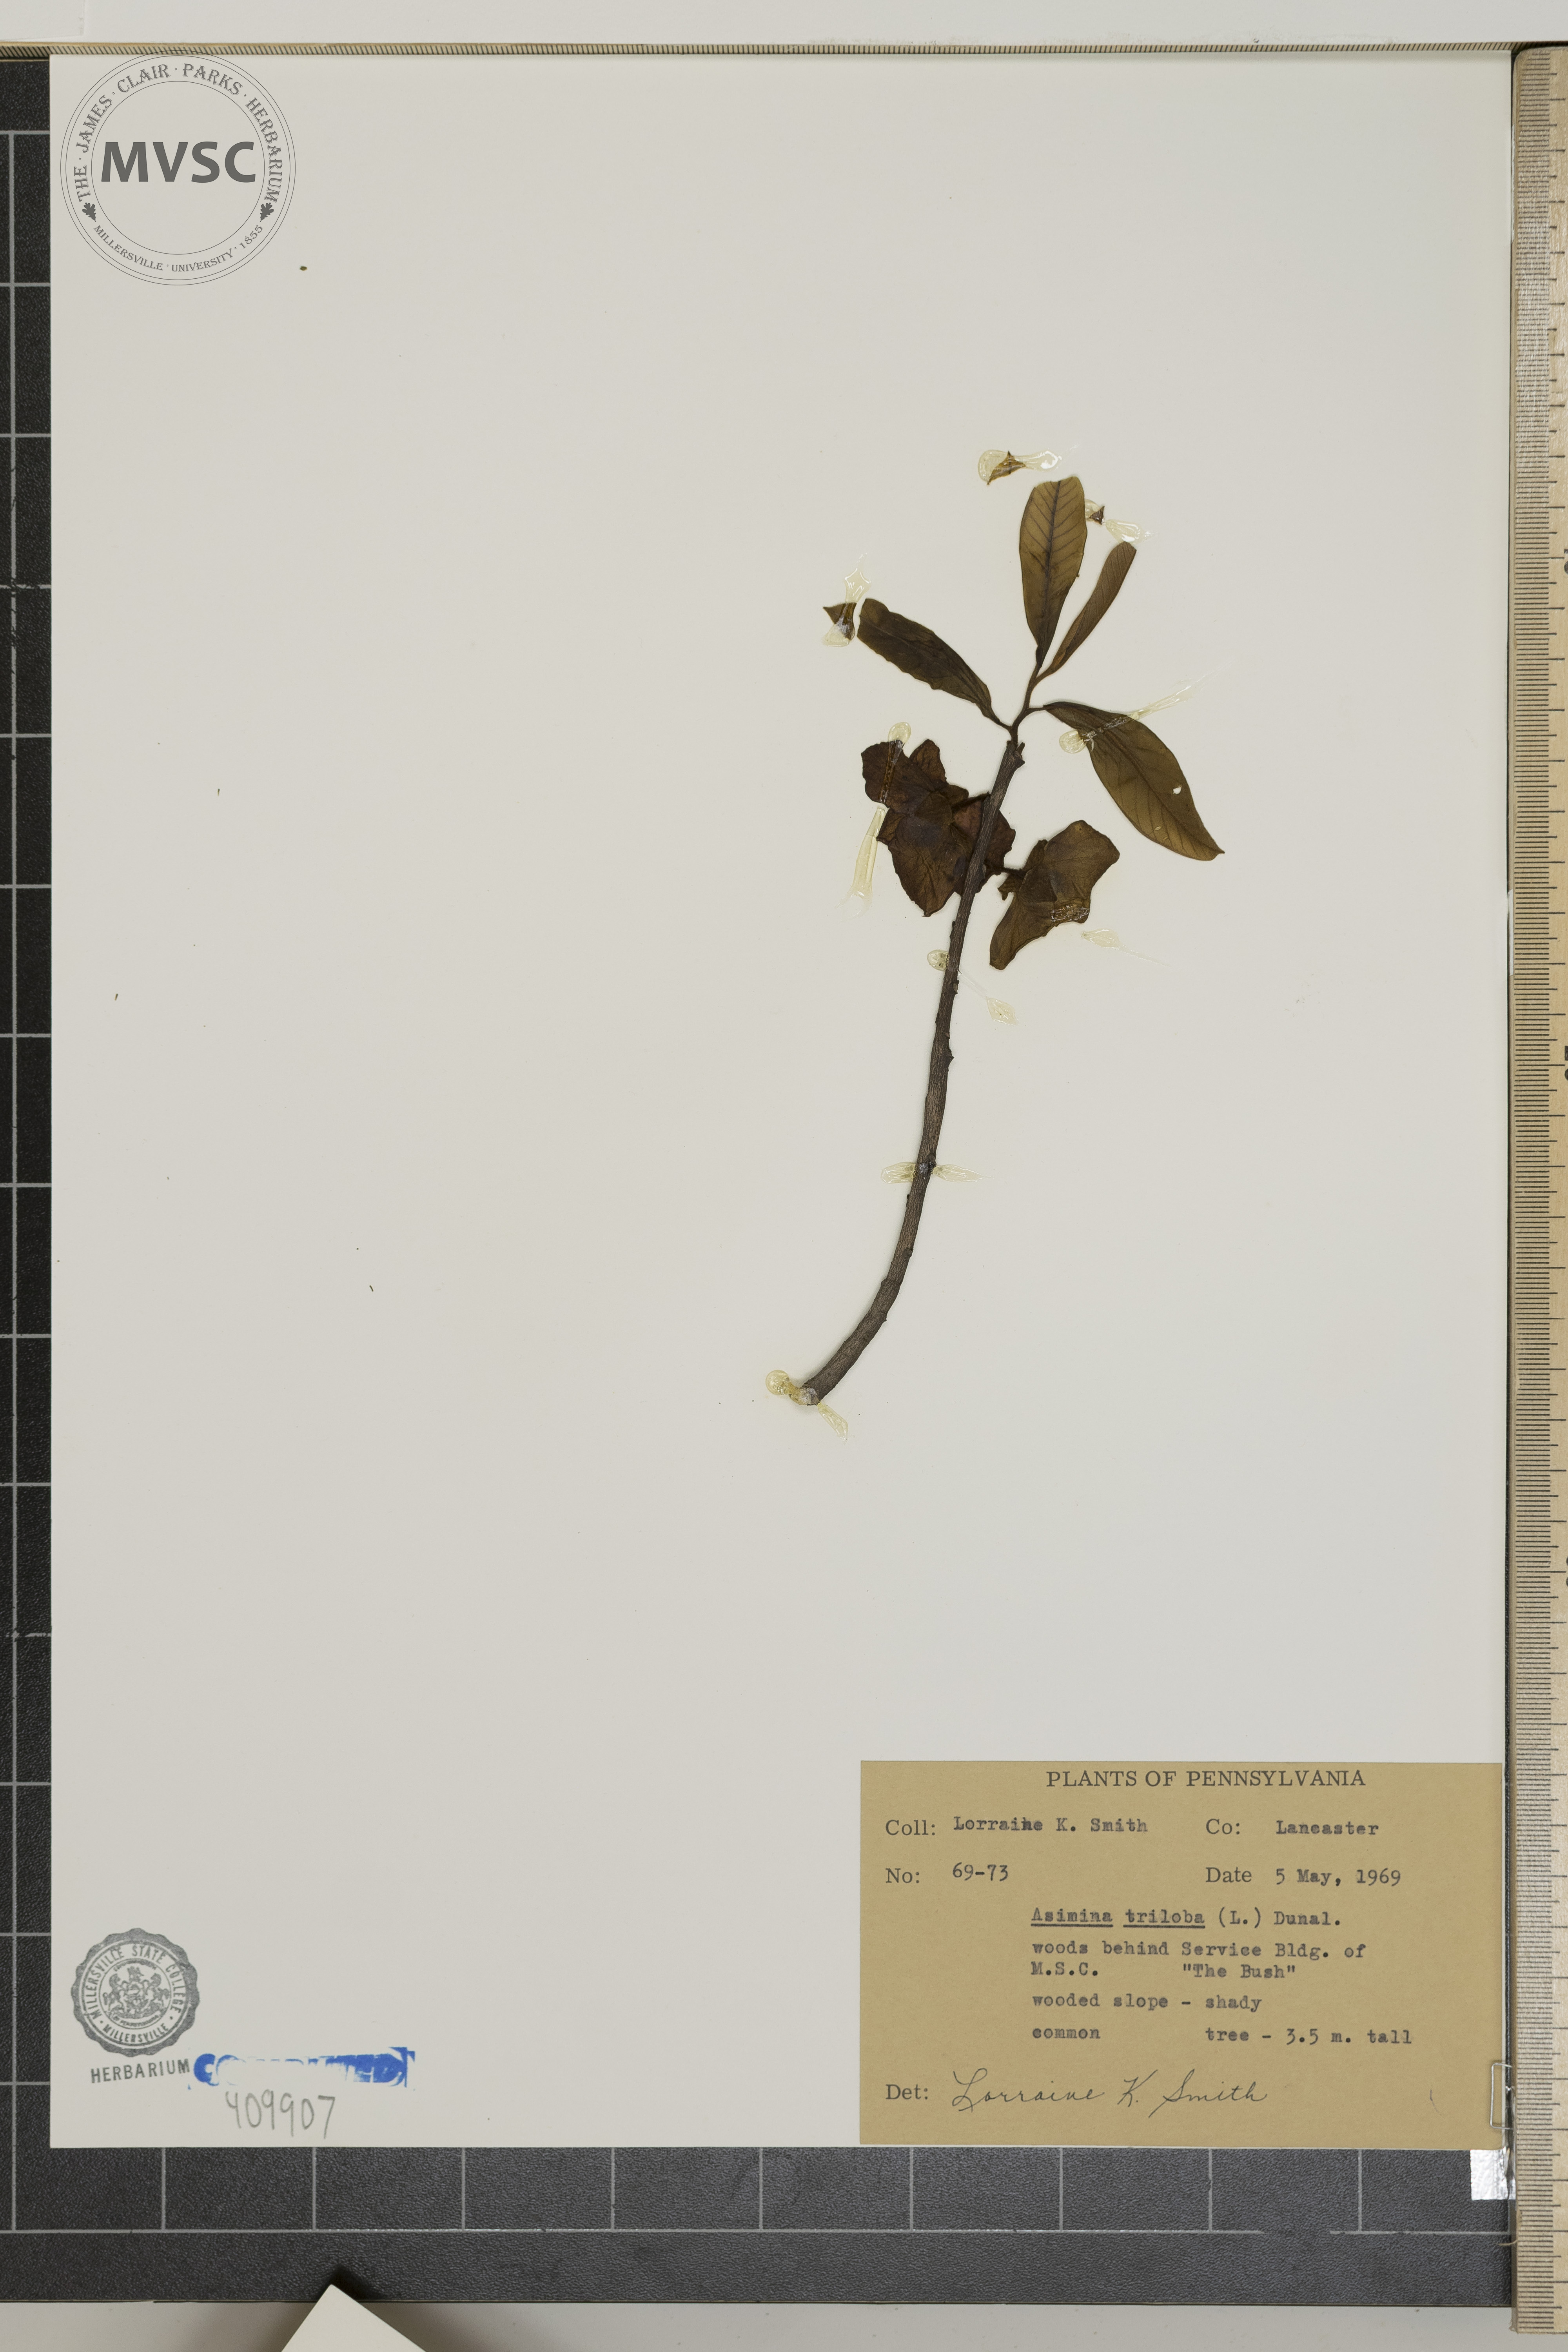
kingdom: Plantae
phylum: Tracheophyta
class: Magnoliopsida
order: Magnoliales
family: Annonaceae
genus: Asimina
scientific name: Asimina triloba
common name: Dog-banana
